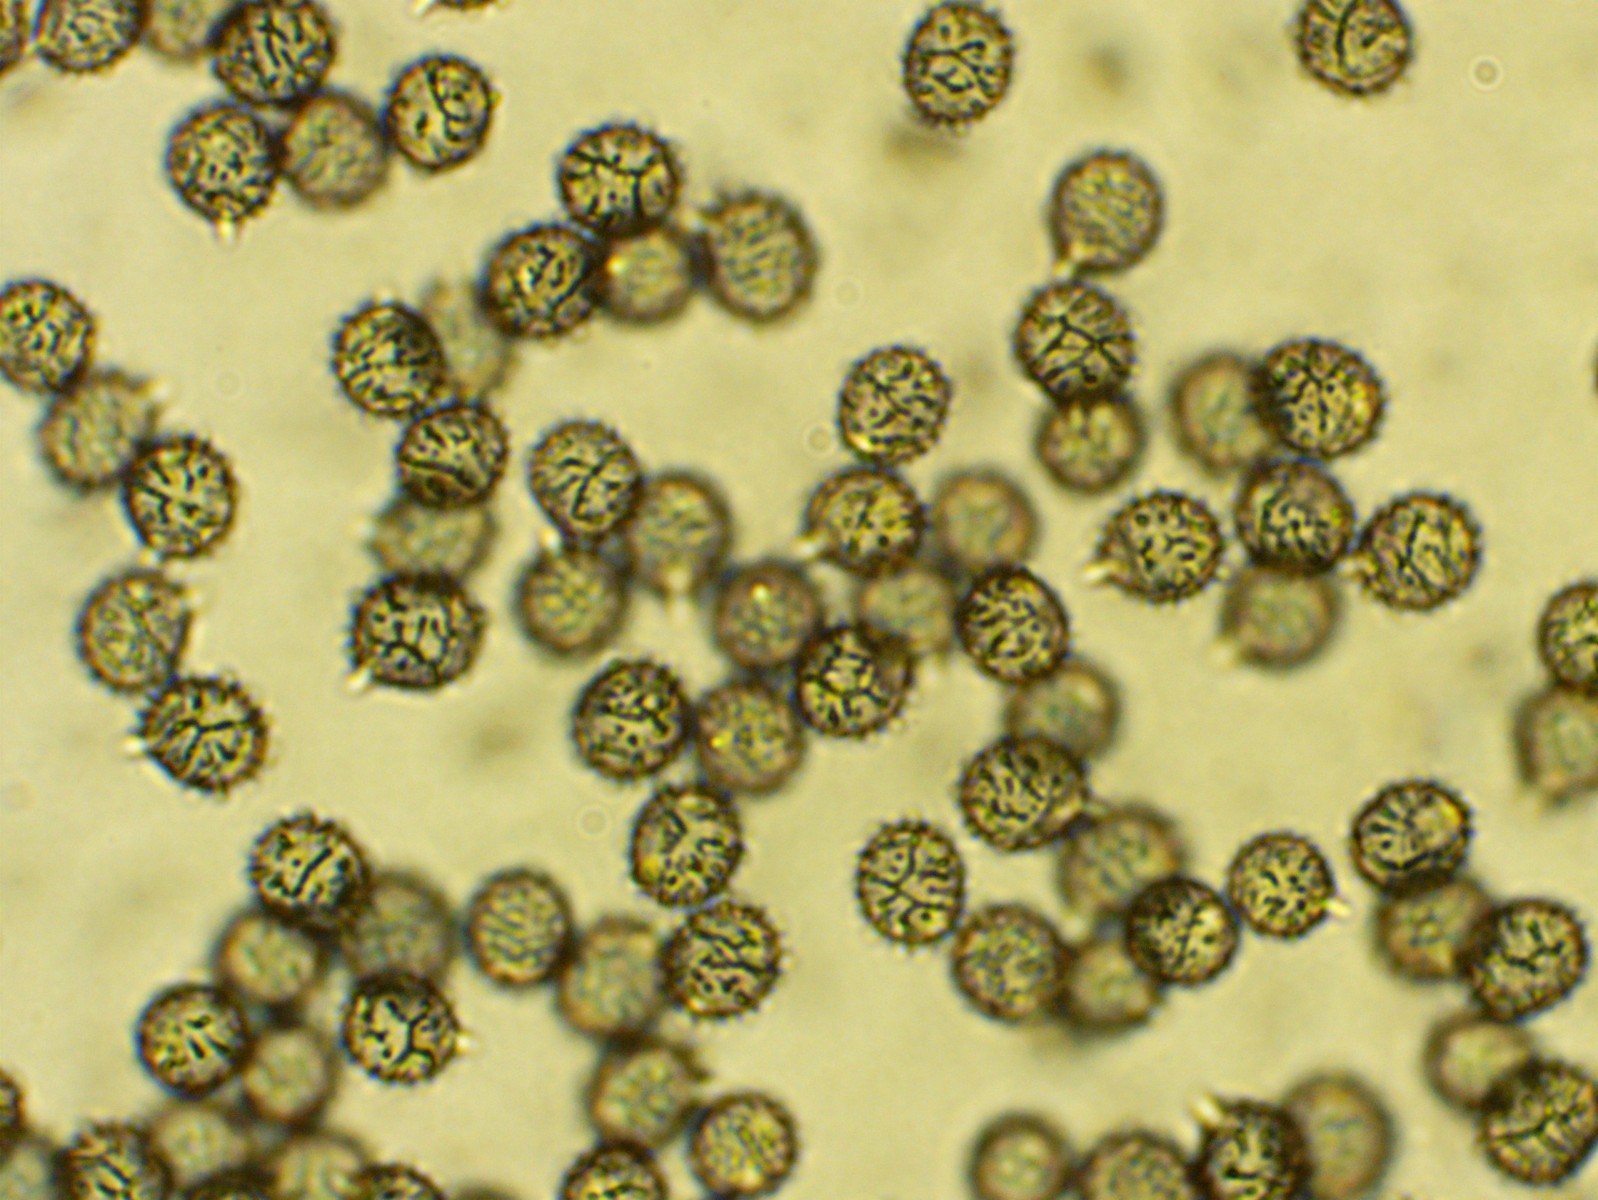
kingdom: Fungi
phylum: Basidiomycota
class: Agaricomycetes
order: Russulales
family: Russulaceae
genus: Lactarius
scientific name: Lactarius zonarioides
